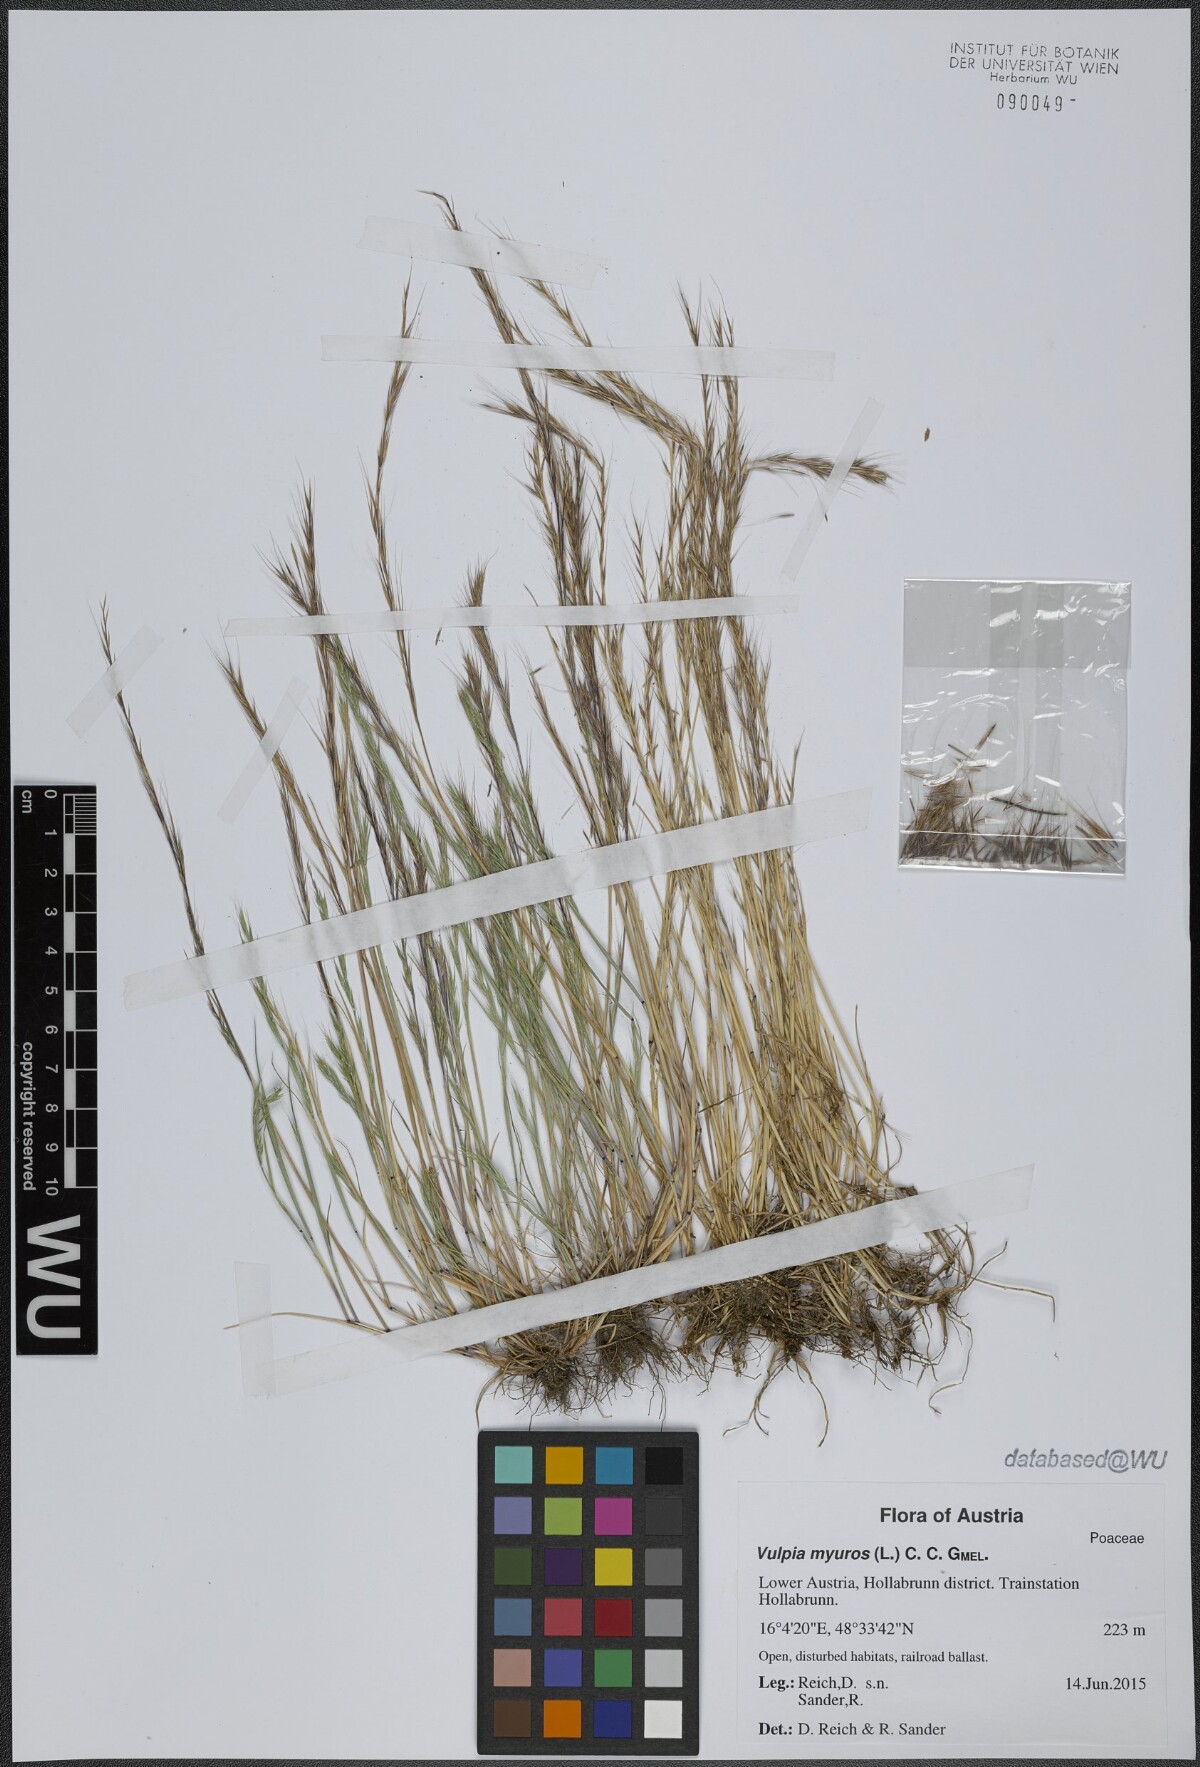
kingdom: Plantae
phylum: Tracheophyta
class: Liliopsida
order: Poales
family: Poaceae
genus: Festuca
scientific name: Festuca myuros
